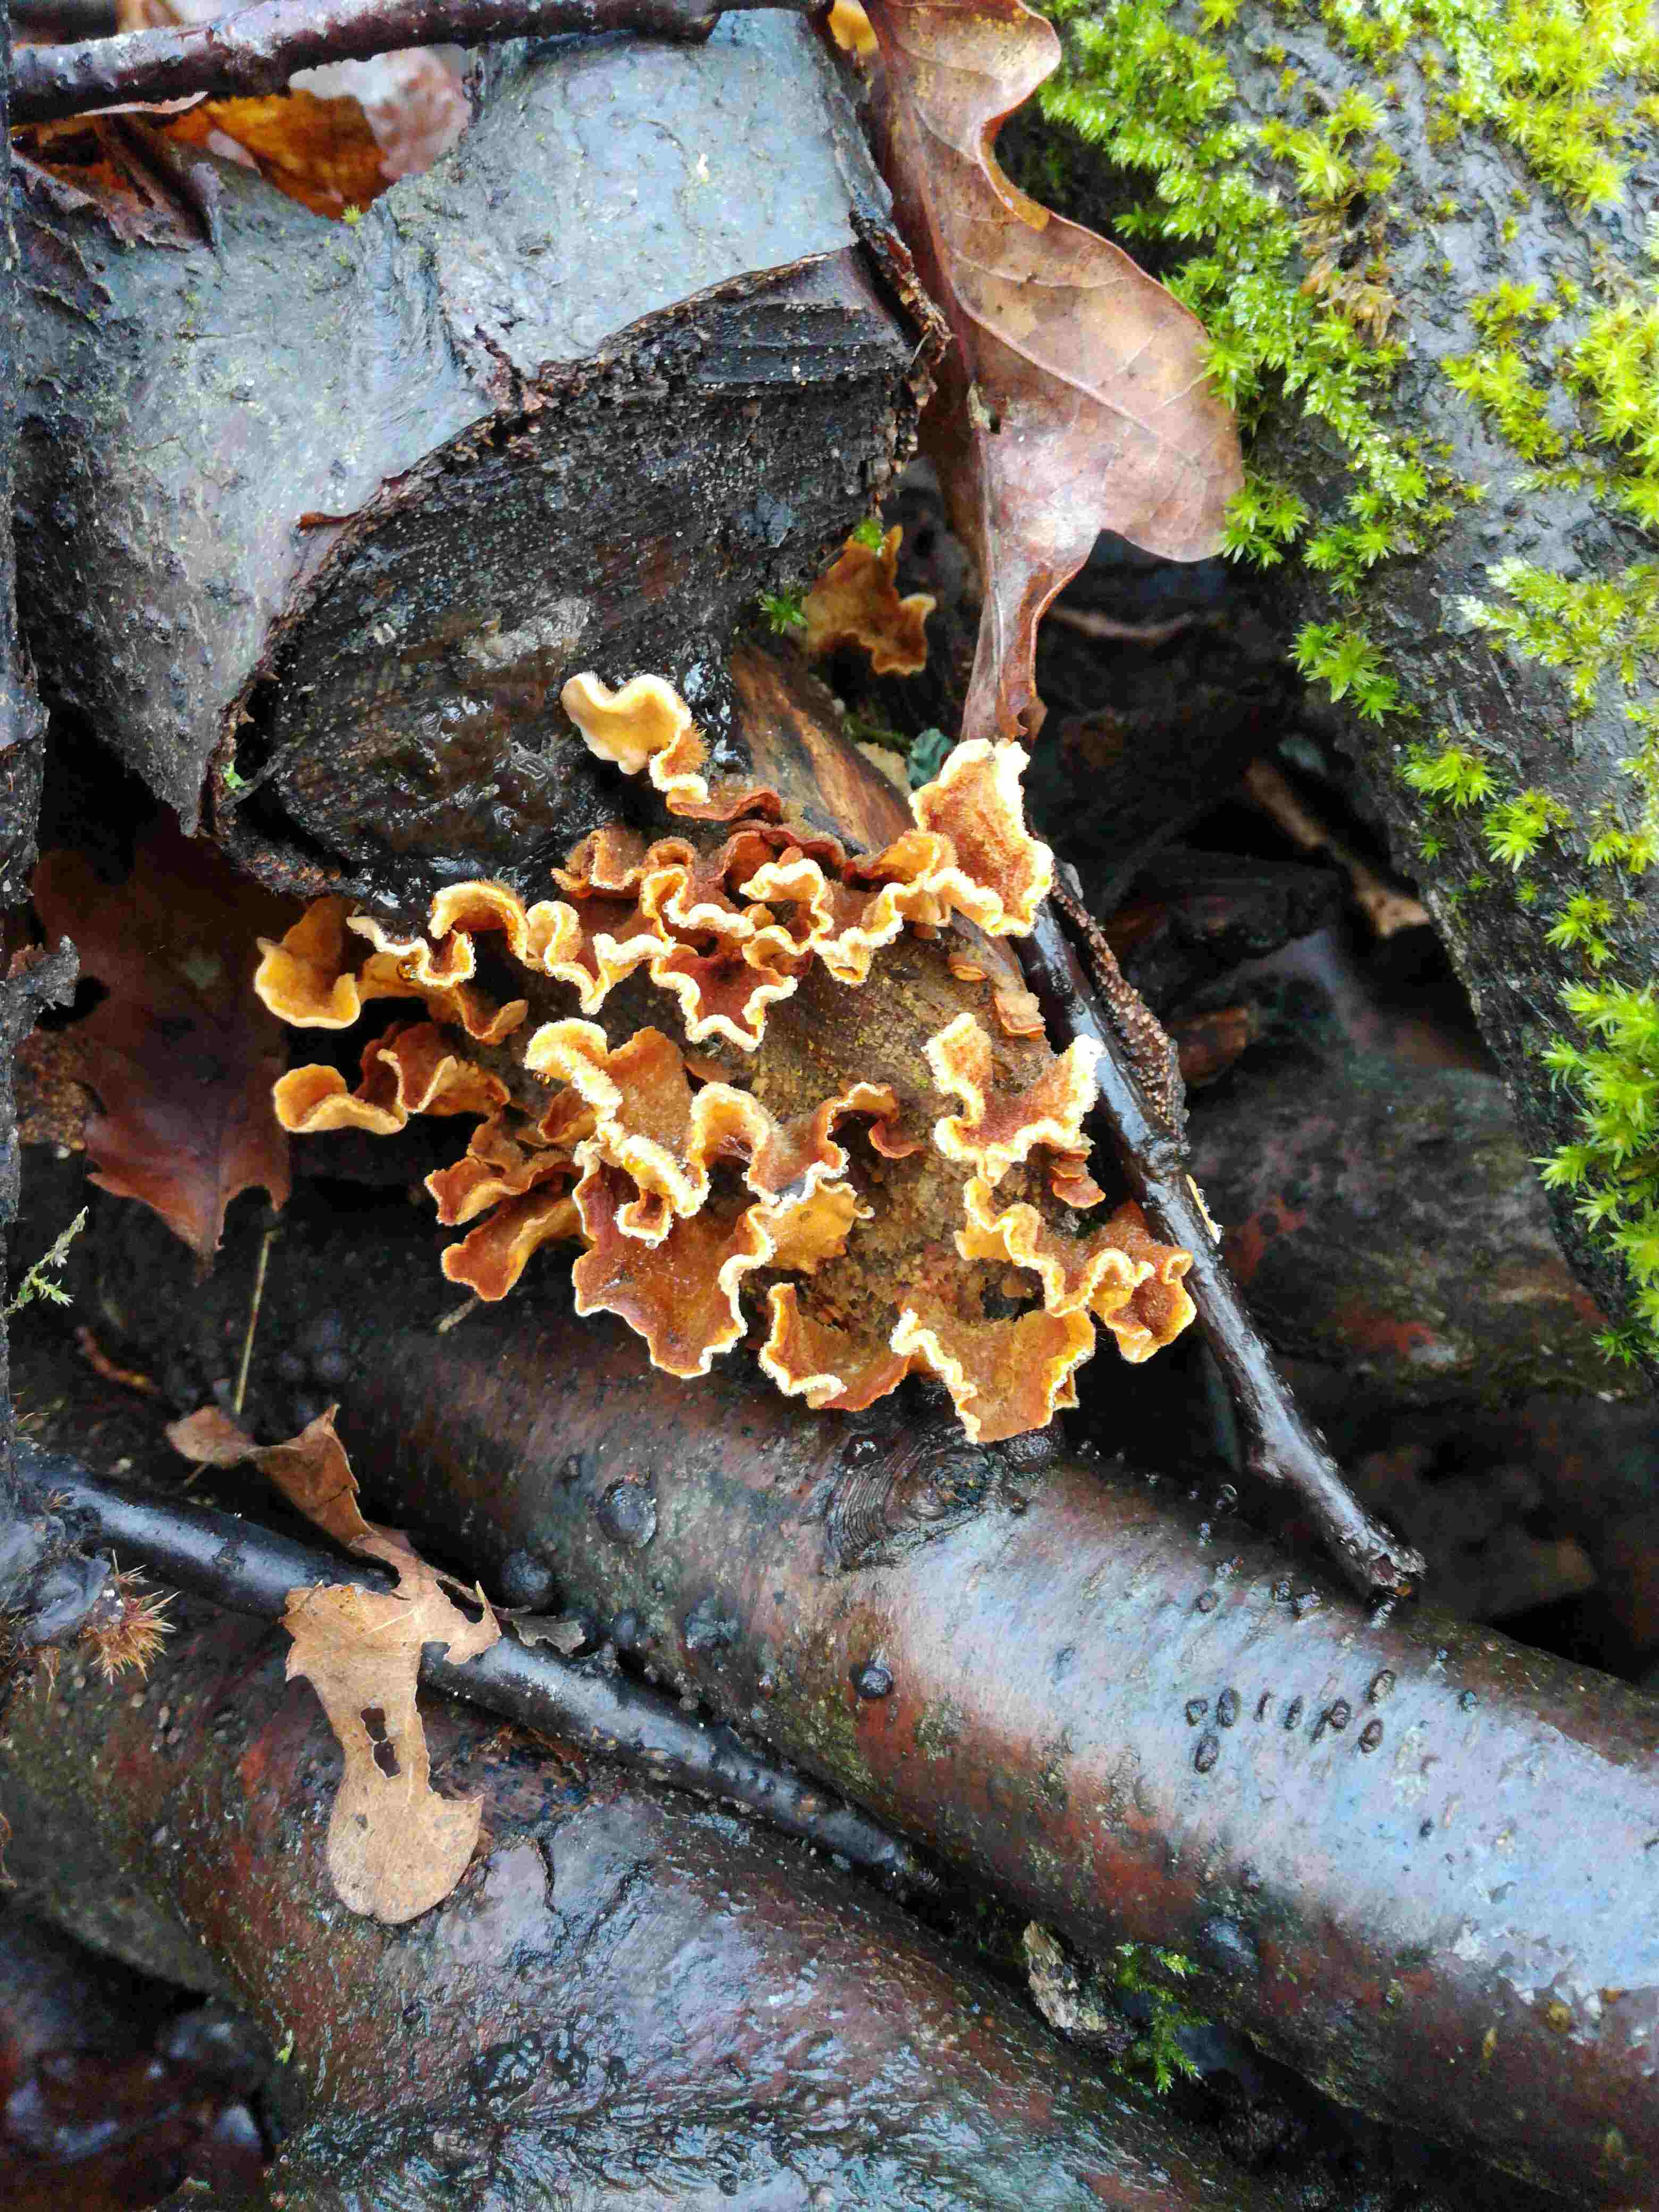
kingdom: Fungi
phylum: Basidiomycota
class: Agaricomycetes
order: Russulales
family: Stereaceae
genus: Stereum
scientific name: Stereum hirsutum
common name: håret lædersvamp
